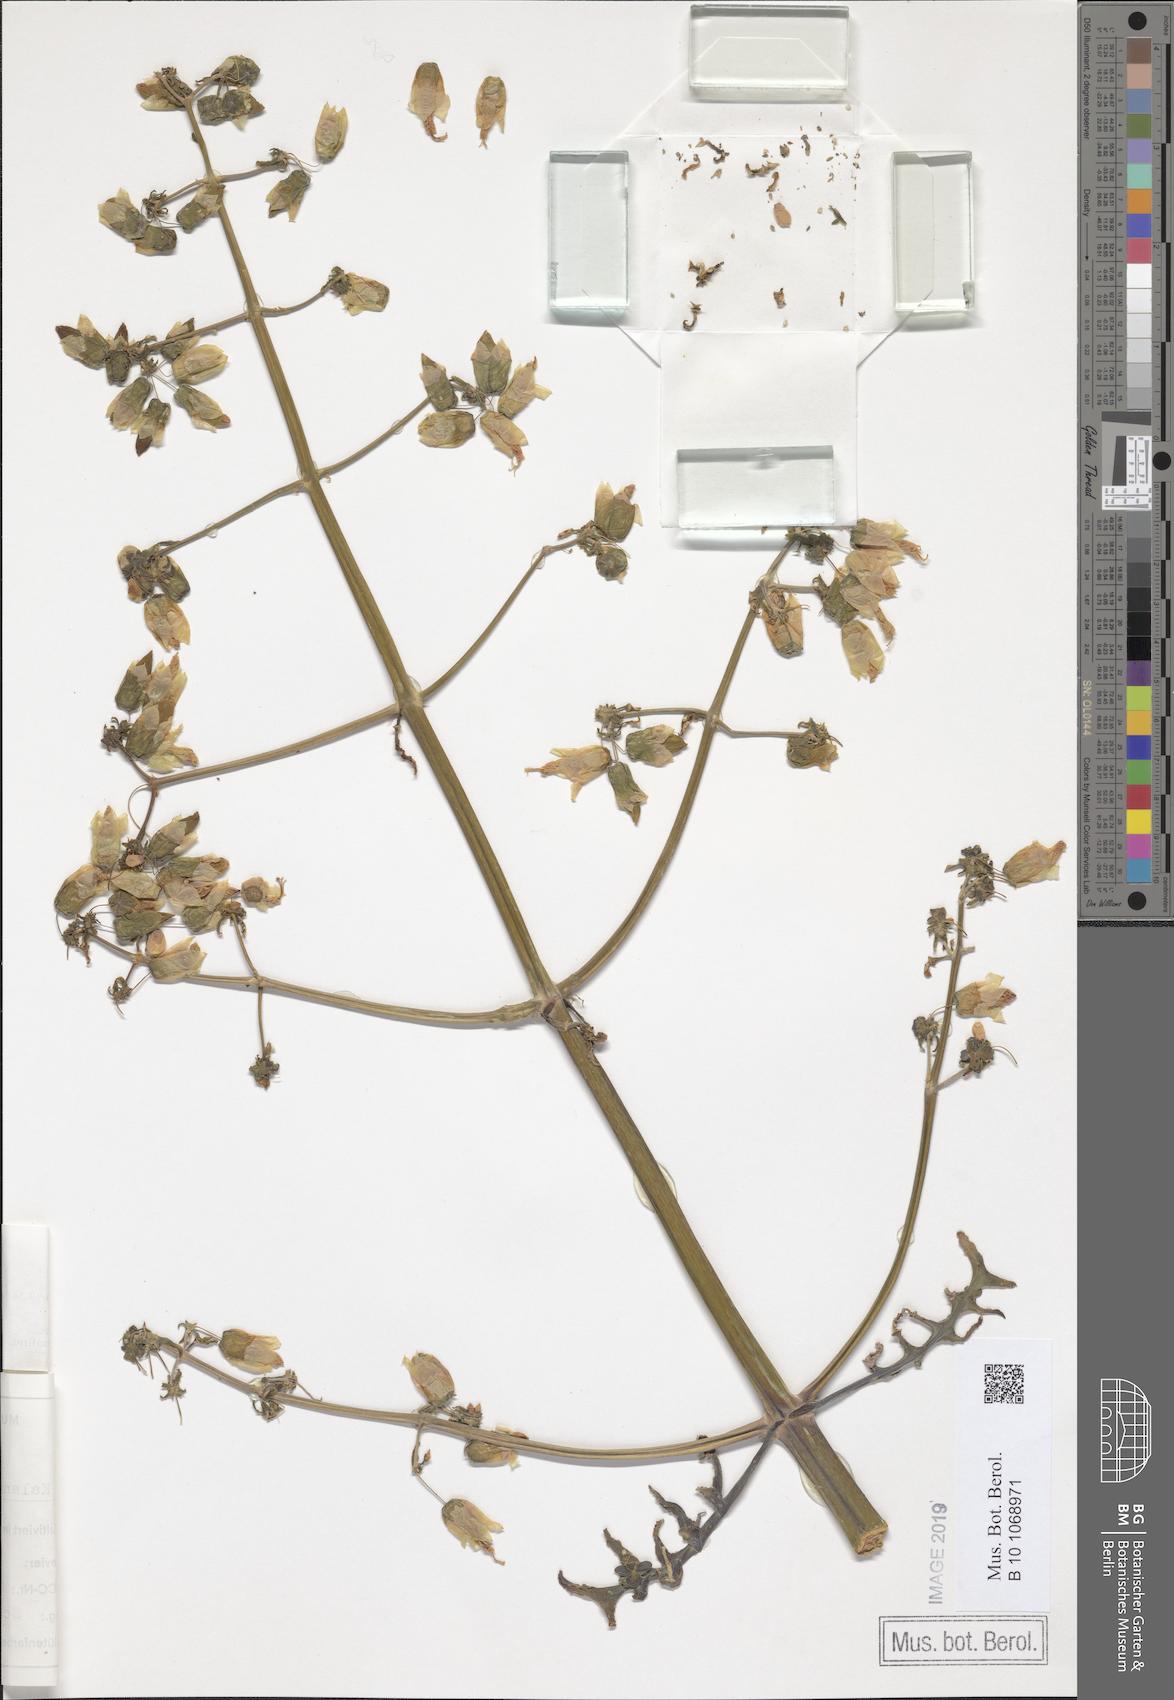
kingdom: Plantae
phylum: Tracheophyta
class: Magnoliopsida
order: Saxifragales
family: Crassulaceae
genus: Kalanchoe
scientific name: Kalanchoe prolifera
